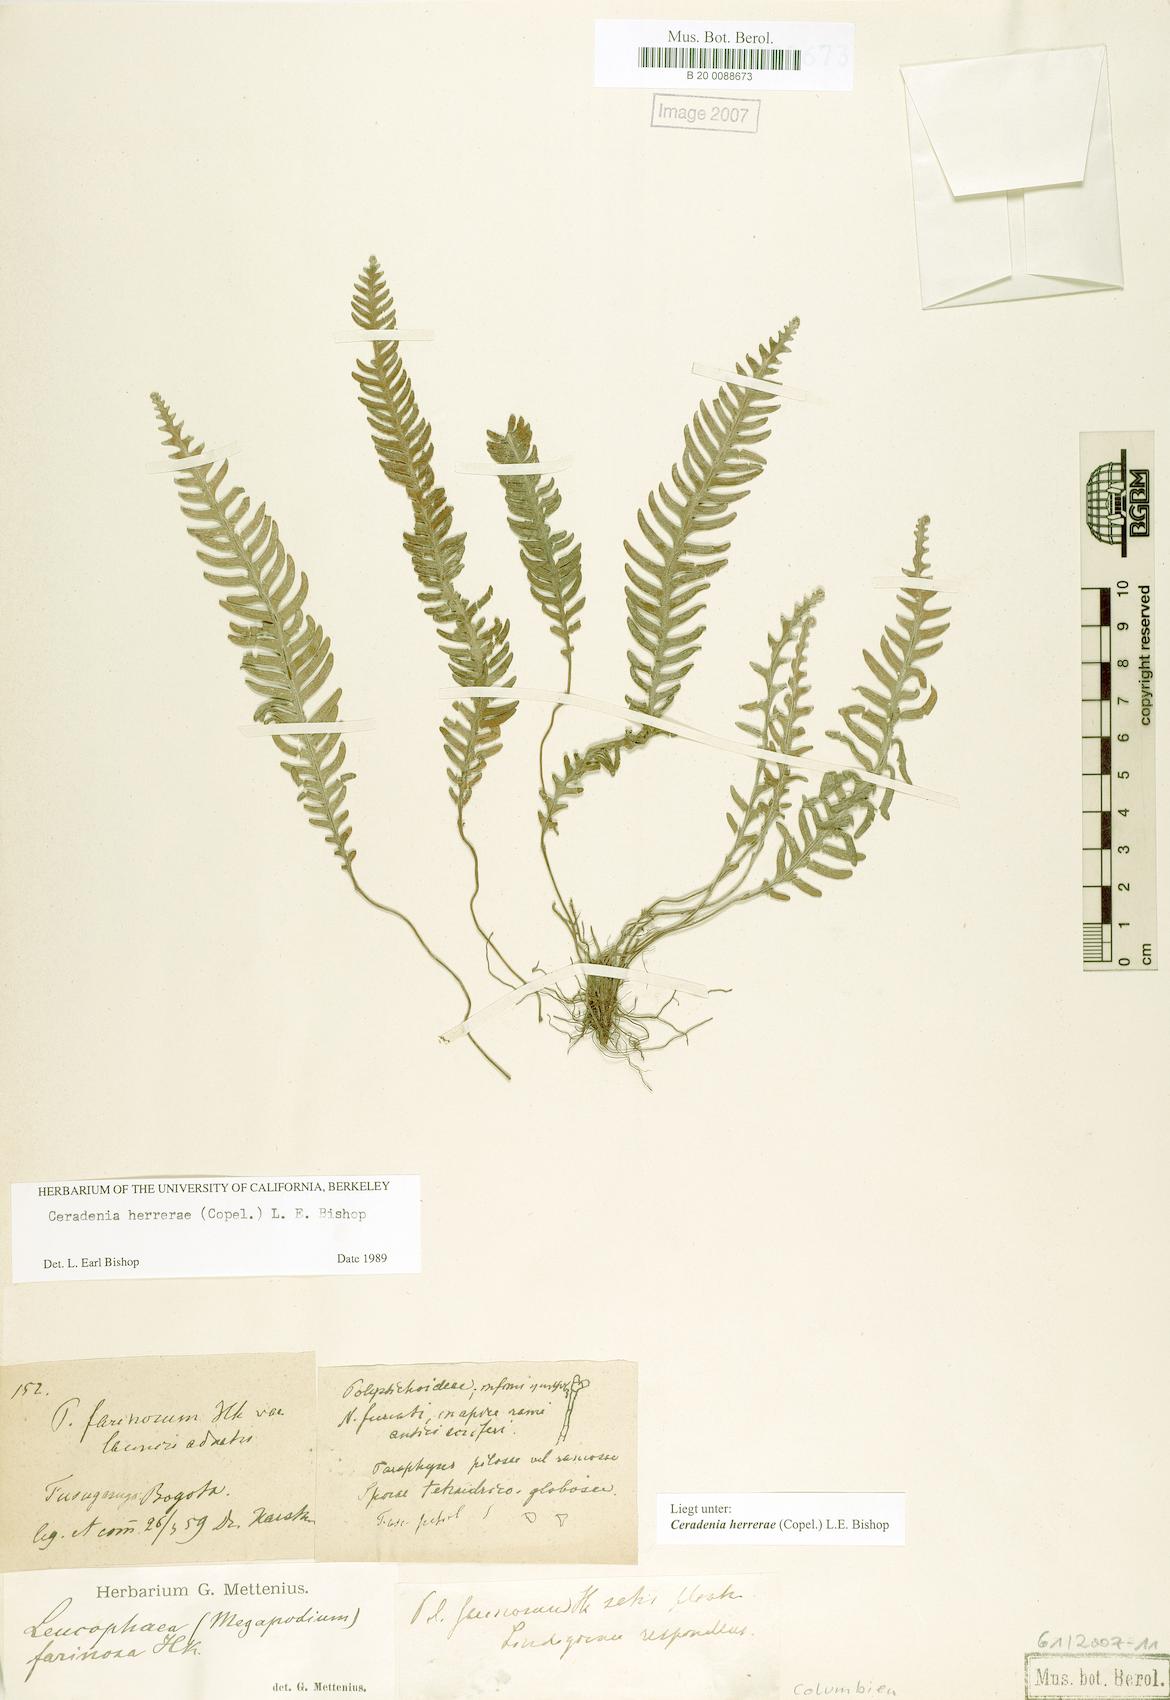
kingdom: Plantae
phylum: Tracheophyta
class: Polypodiopsida
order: Polypodiales
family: Polypodiaceae
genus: Ceradenia
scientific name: Ceradenia herrerae
